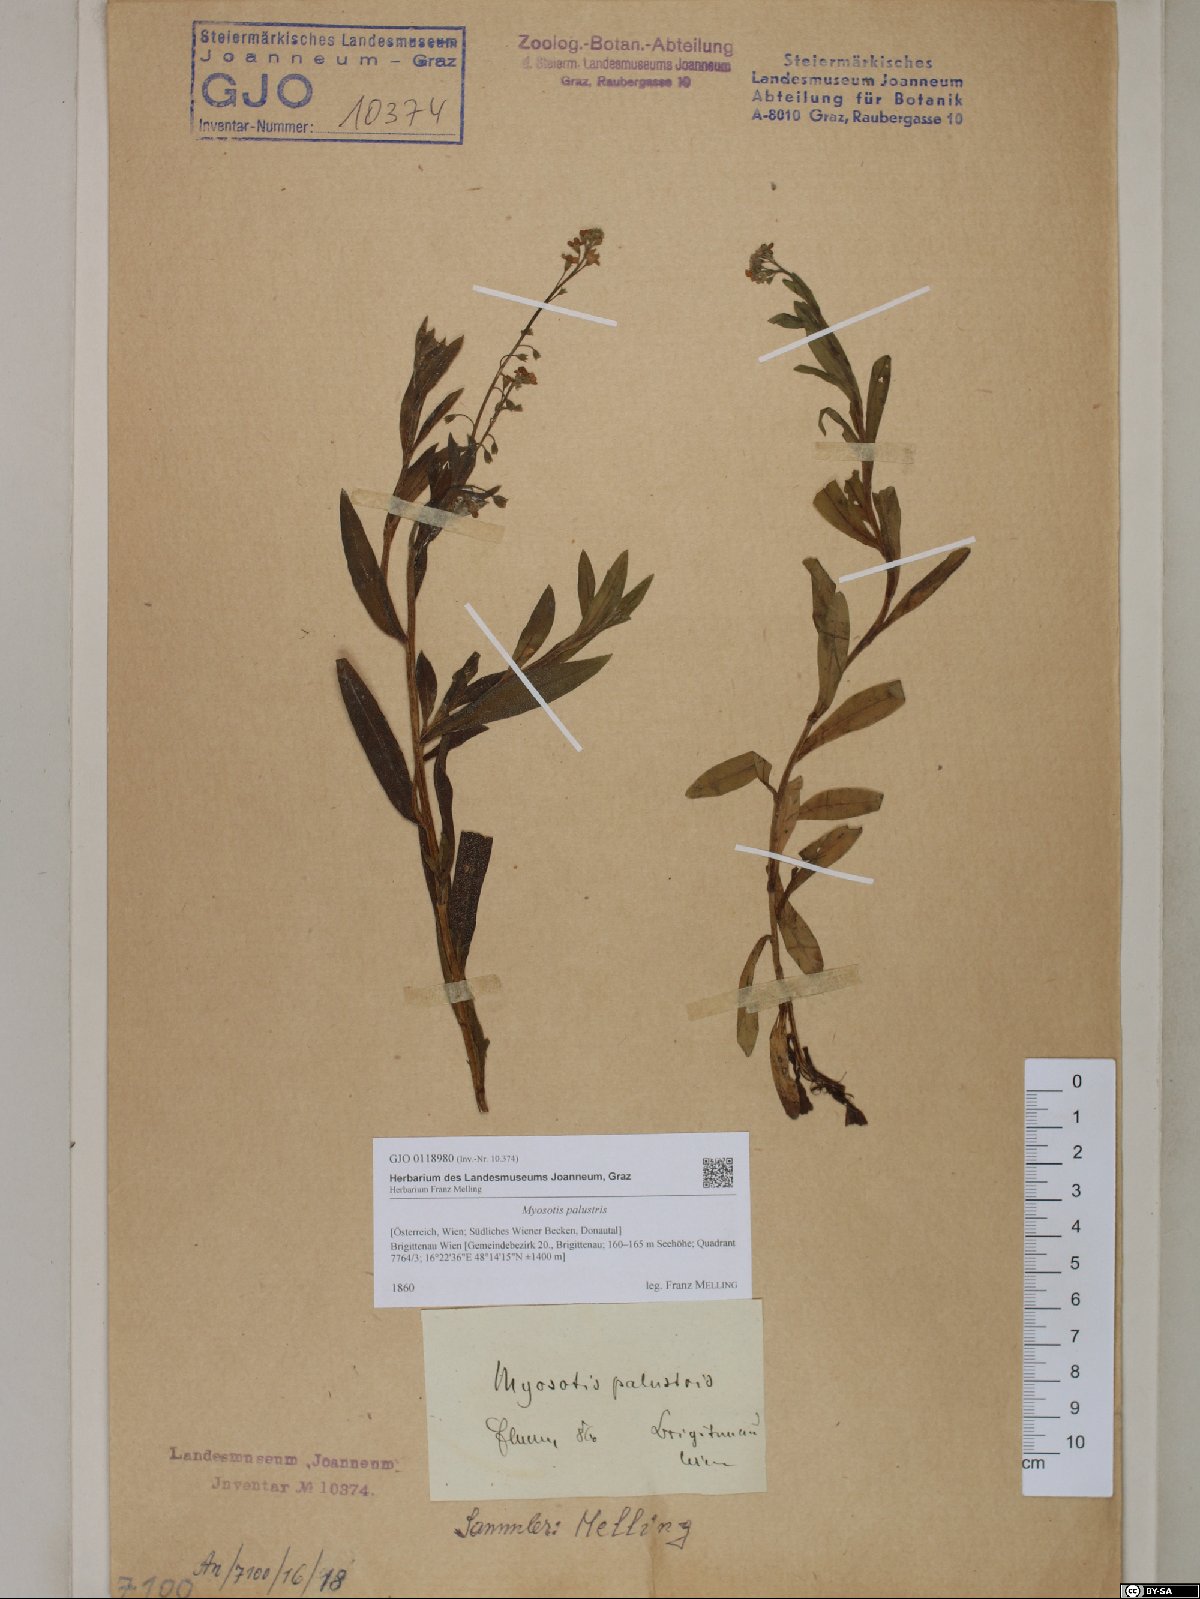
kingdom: Plantae
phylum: Tracheophyta
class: Magnoliopsida
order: Boraginales
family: Boraginaceae
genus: Myosotis
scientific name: Myosotis scorpioides
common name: Water forget-me-not
